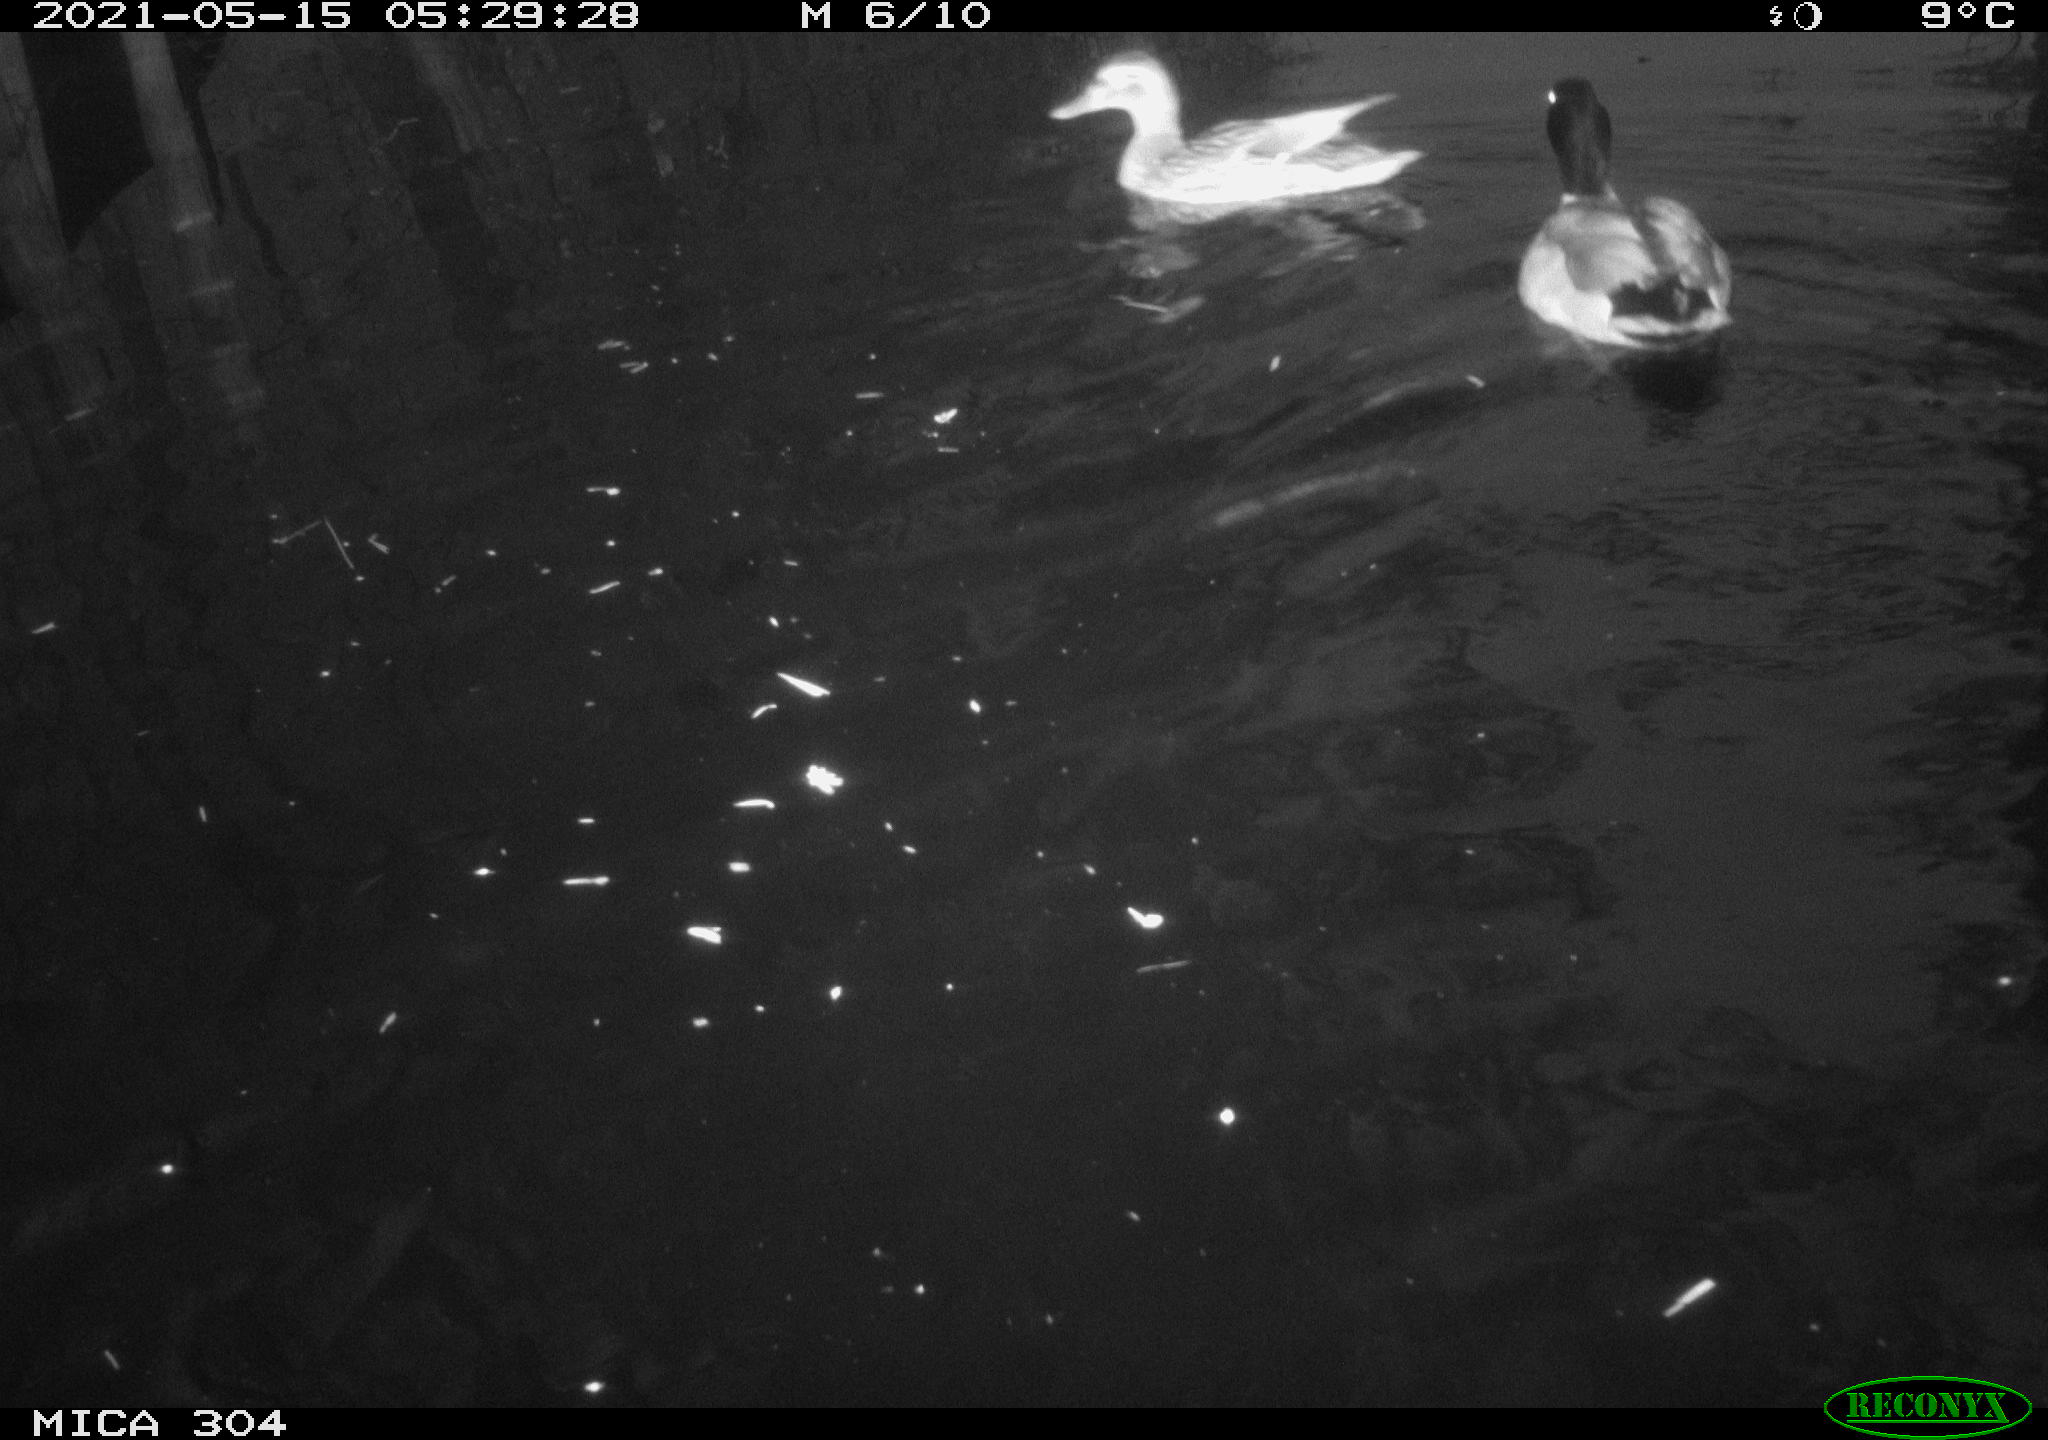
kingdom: Animalia
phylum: Chordata
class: Aves
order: Anseriformes
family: Anatidae
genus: Mareca
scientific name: Mareca strepera
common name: Gadwall
